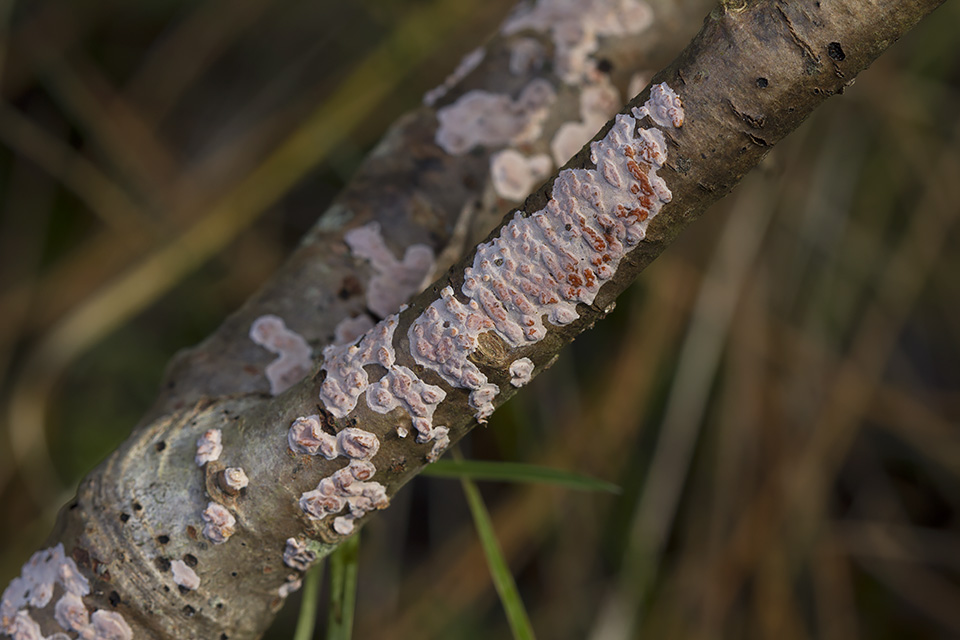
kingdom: Fungi
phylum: Basidiomycota
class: Agaricomycetes
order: Russulales
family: Peniophoraceae
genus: Peniophora
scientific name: Peniophora polygonia
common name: polygon-voksskind
